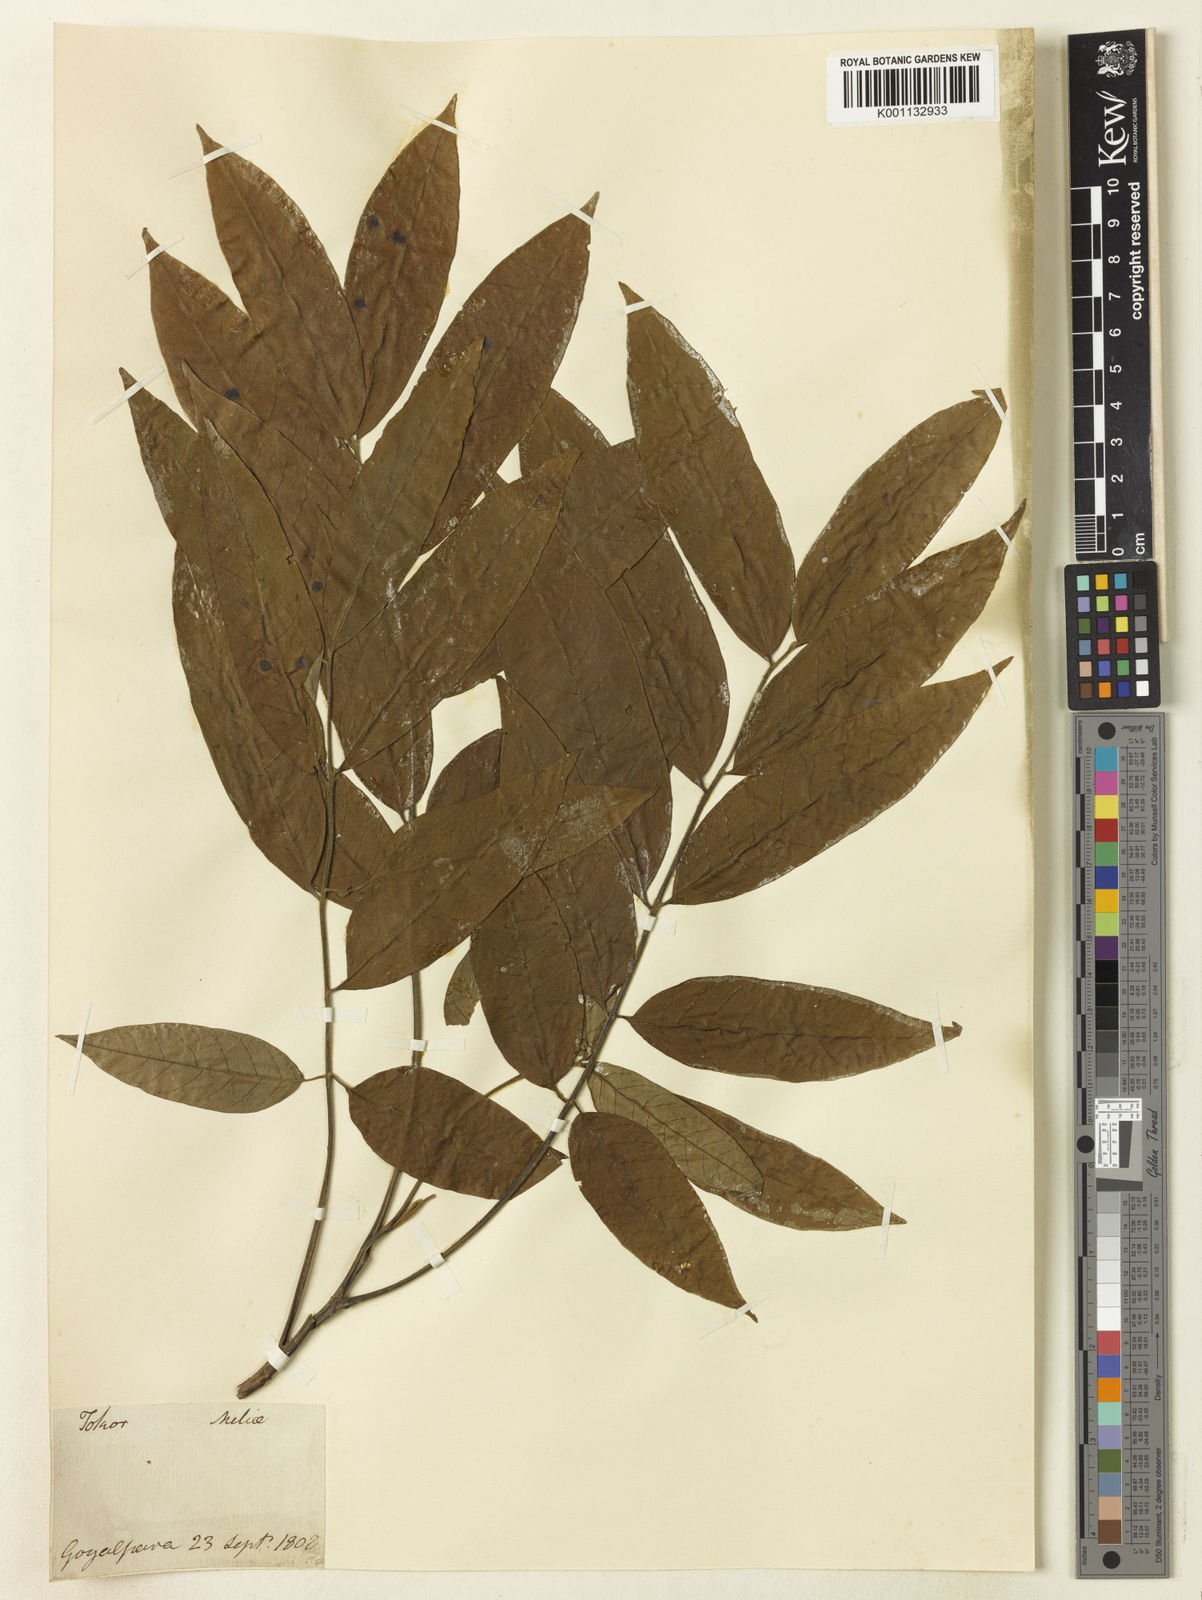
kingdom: Plantae
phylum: Tracheophyta
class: Magnoliopsida
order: Sapindales
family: Sapindaceae
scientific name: Sapindaceae
